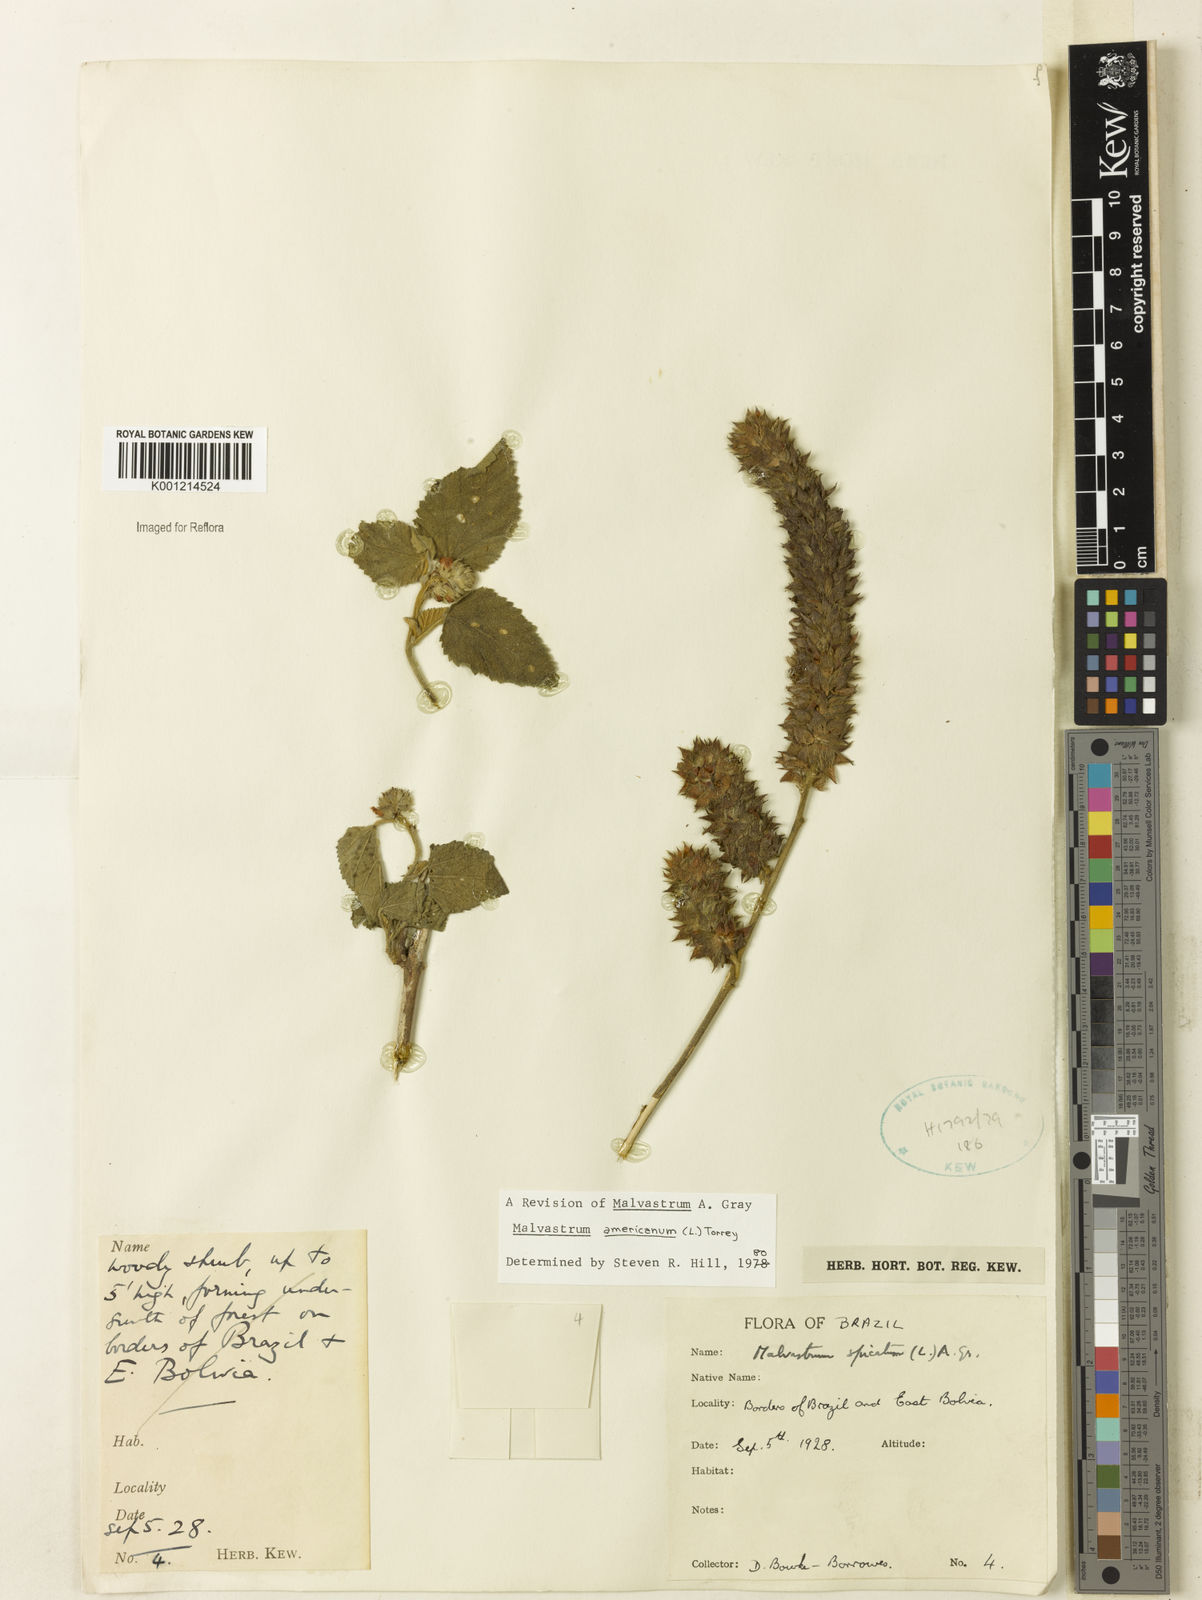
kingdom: Plantae
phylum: Tracheophyta
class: Magnoliopsida
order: Malvales
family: Malvaceae
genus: Malvastrum
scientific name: Malvastrum americanum
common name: Spiked malvastrum
